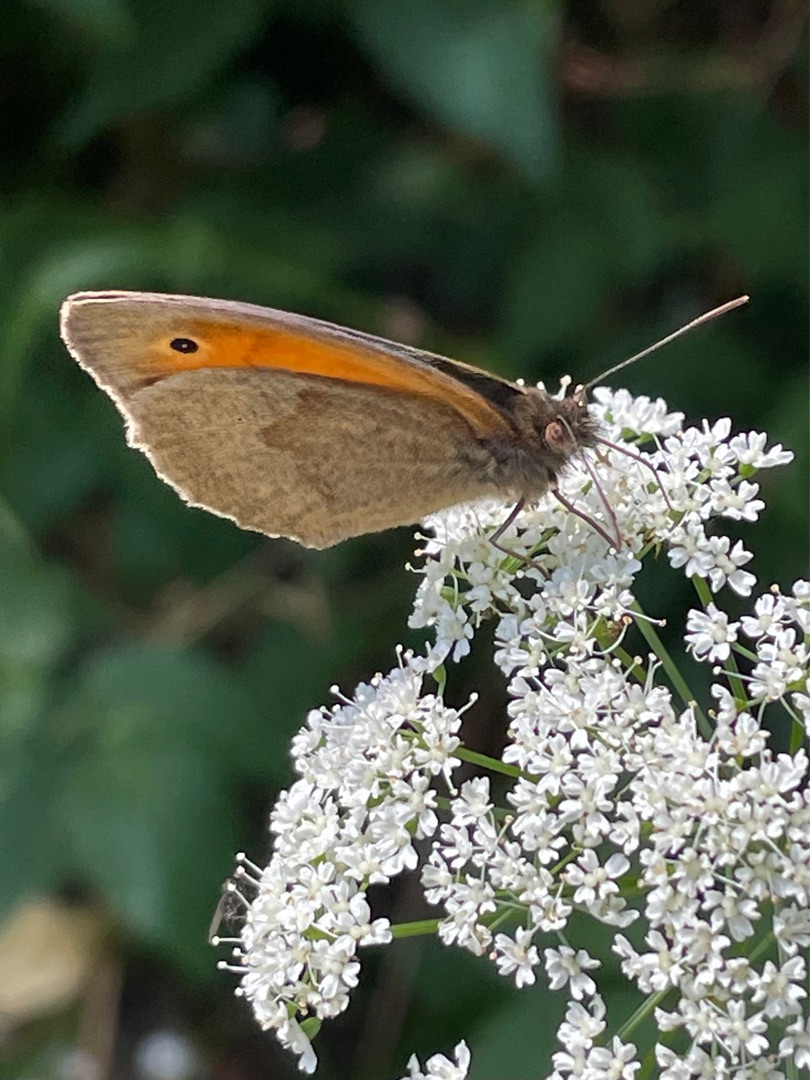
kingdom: Animalia
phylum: Arthropoda
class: Insecta
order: Lepidoptera
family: Nymphalidae
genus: Maniola
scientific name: Maniola jurtina
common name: Græsrandøje
